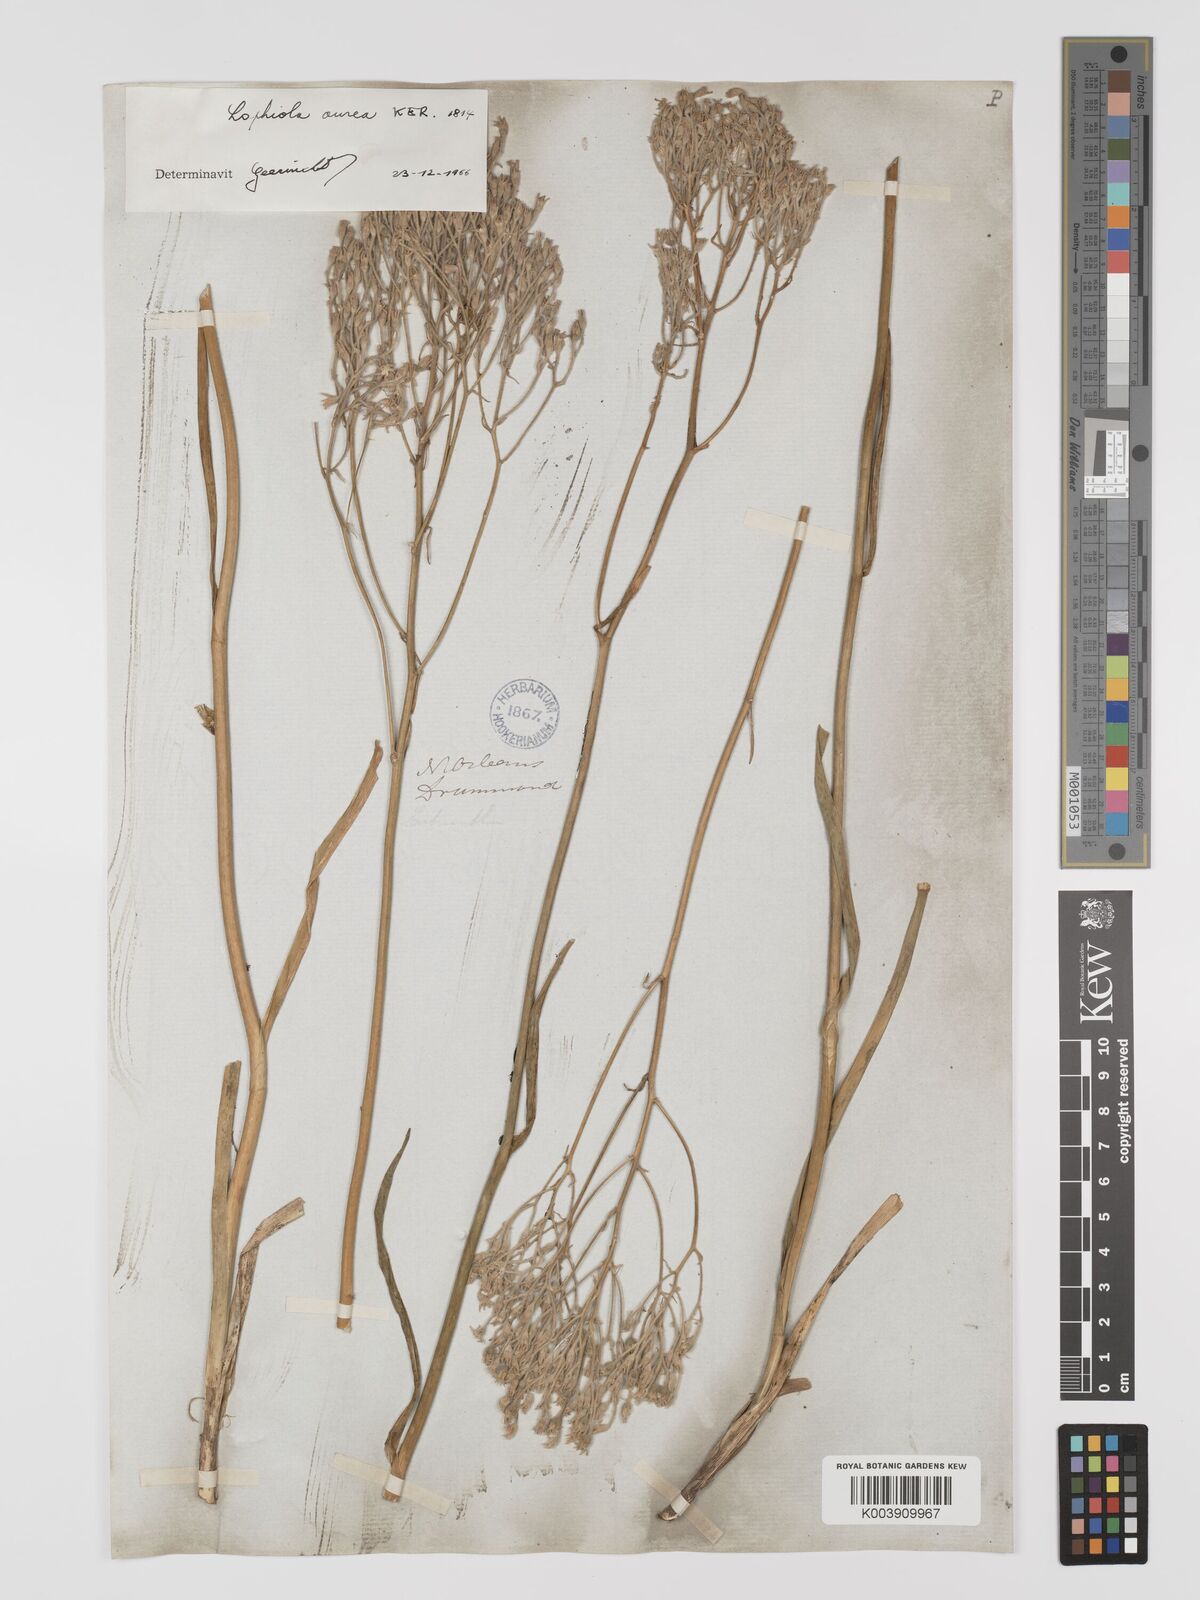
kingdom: Plantae
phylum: Tracheophyta
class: Liliopsida
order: Dioscoreales
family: Nartheciaceae
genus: Lophiola
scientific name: Lophiola aurea
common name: Golden-crest
